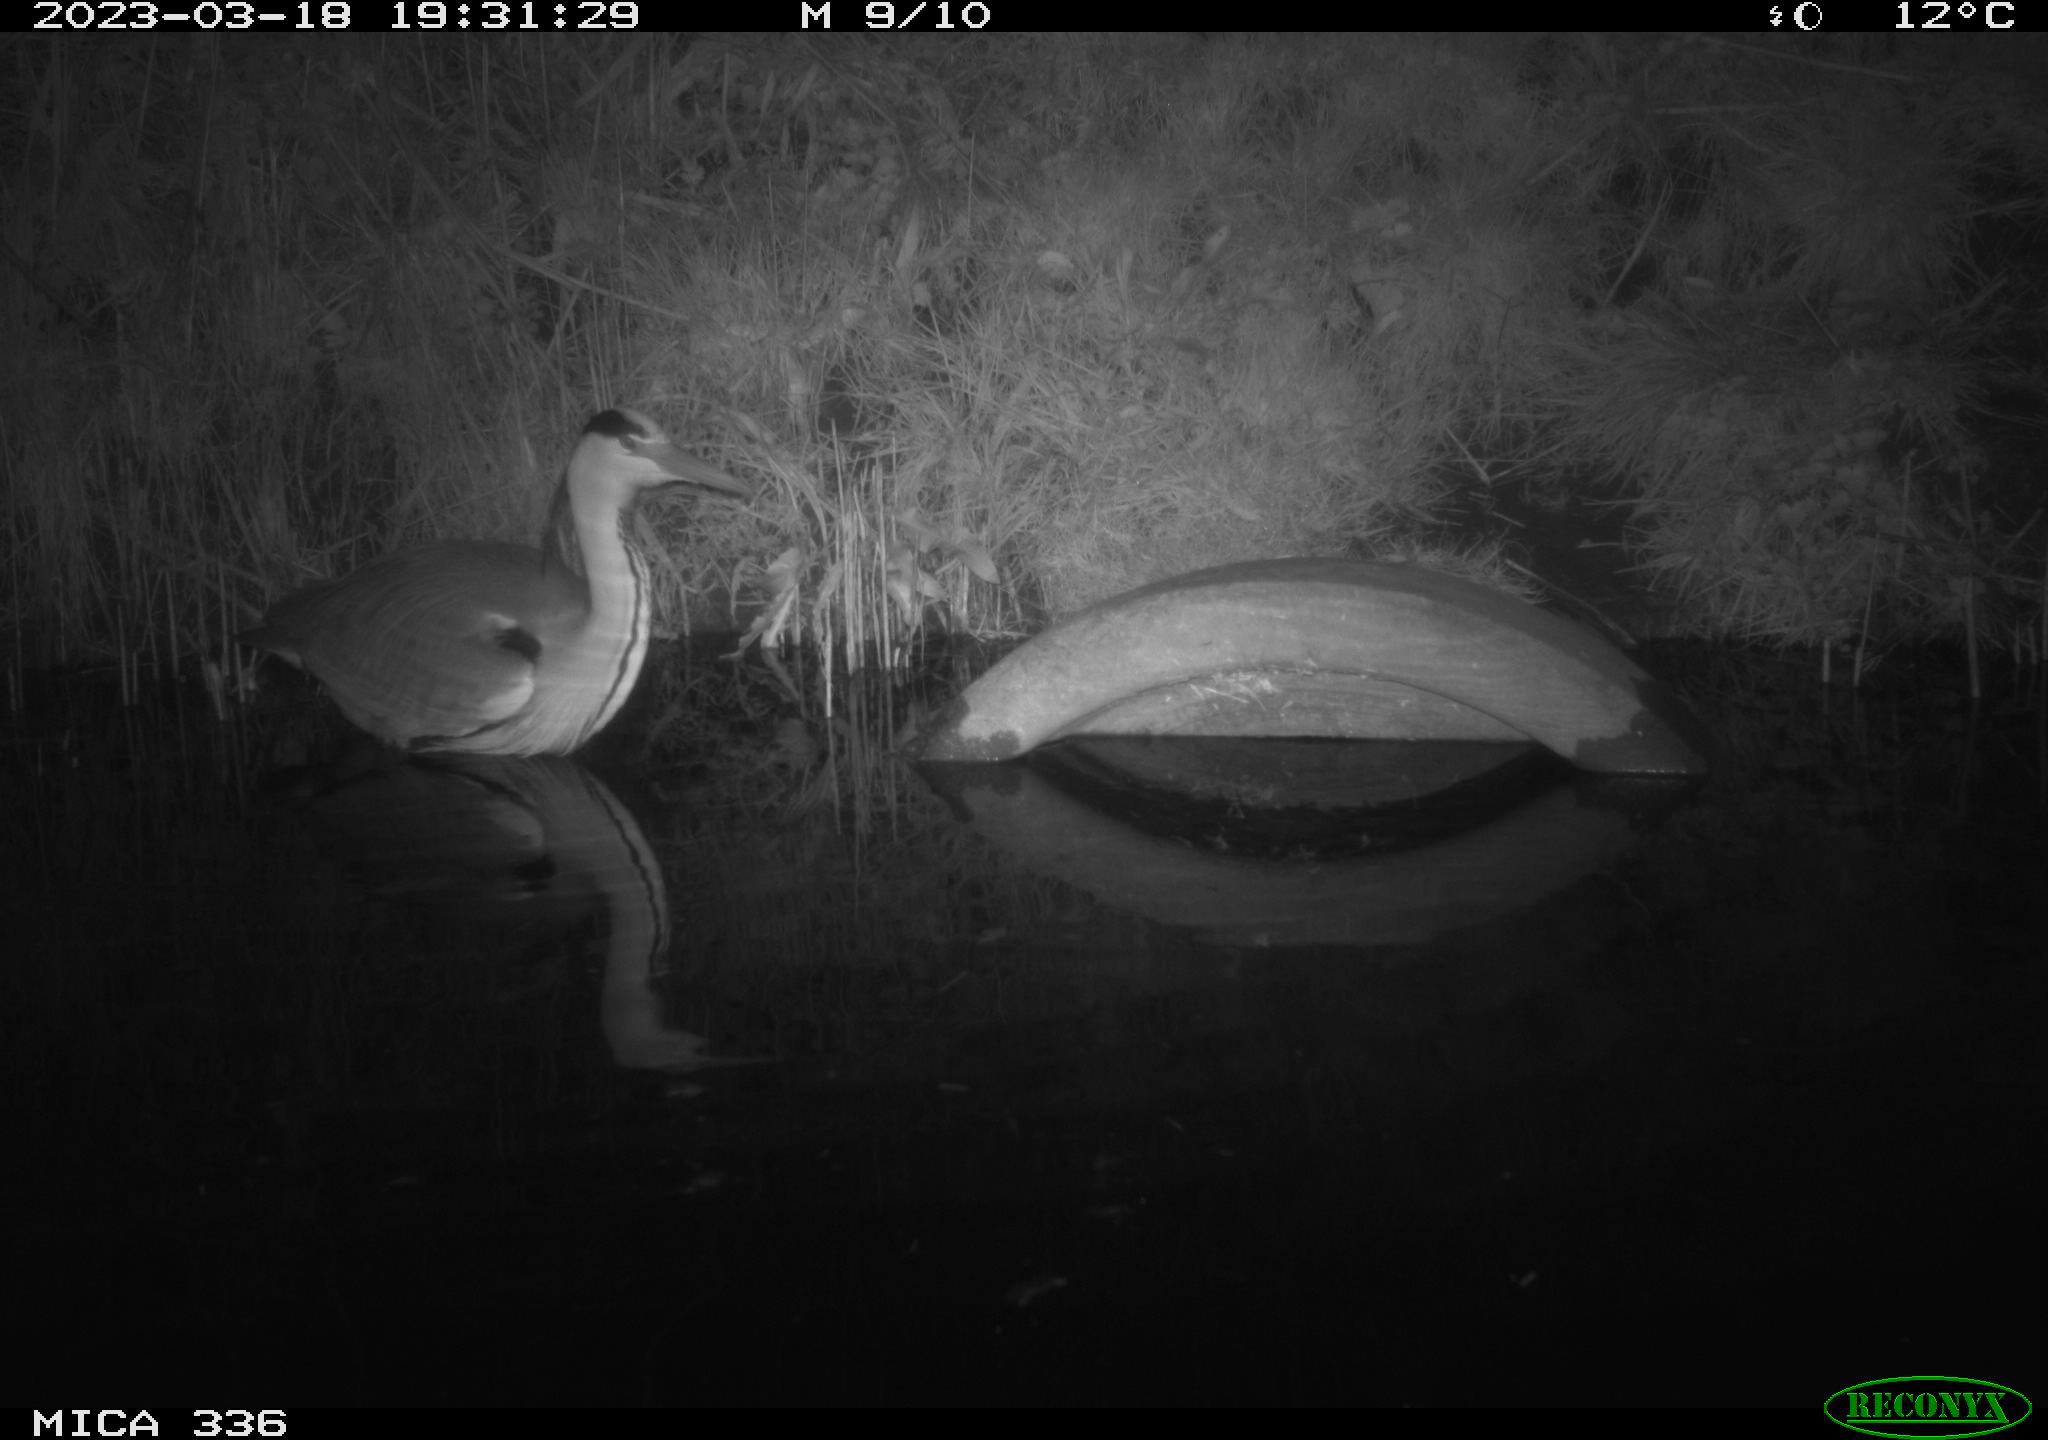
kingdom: Animalia
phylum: Chordata
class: Aves
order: Pelecaniformes
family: Ardeidae
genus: Ardea
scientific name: Ardea cinerea
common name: Grey heron
